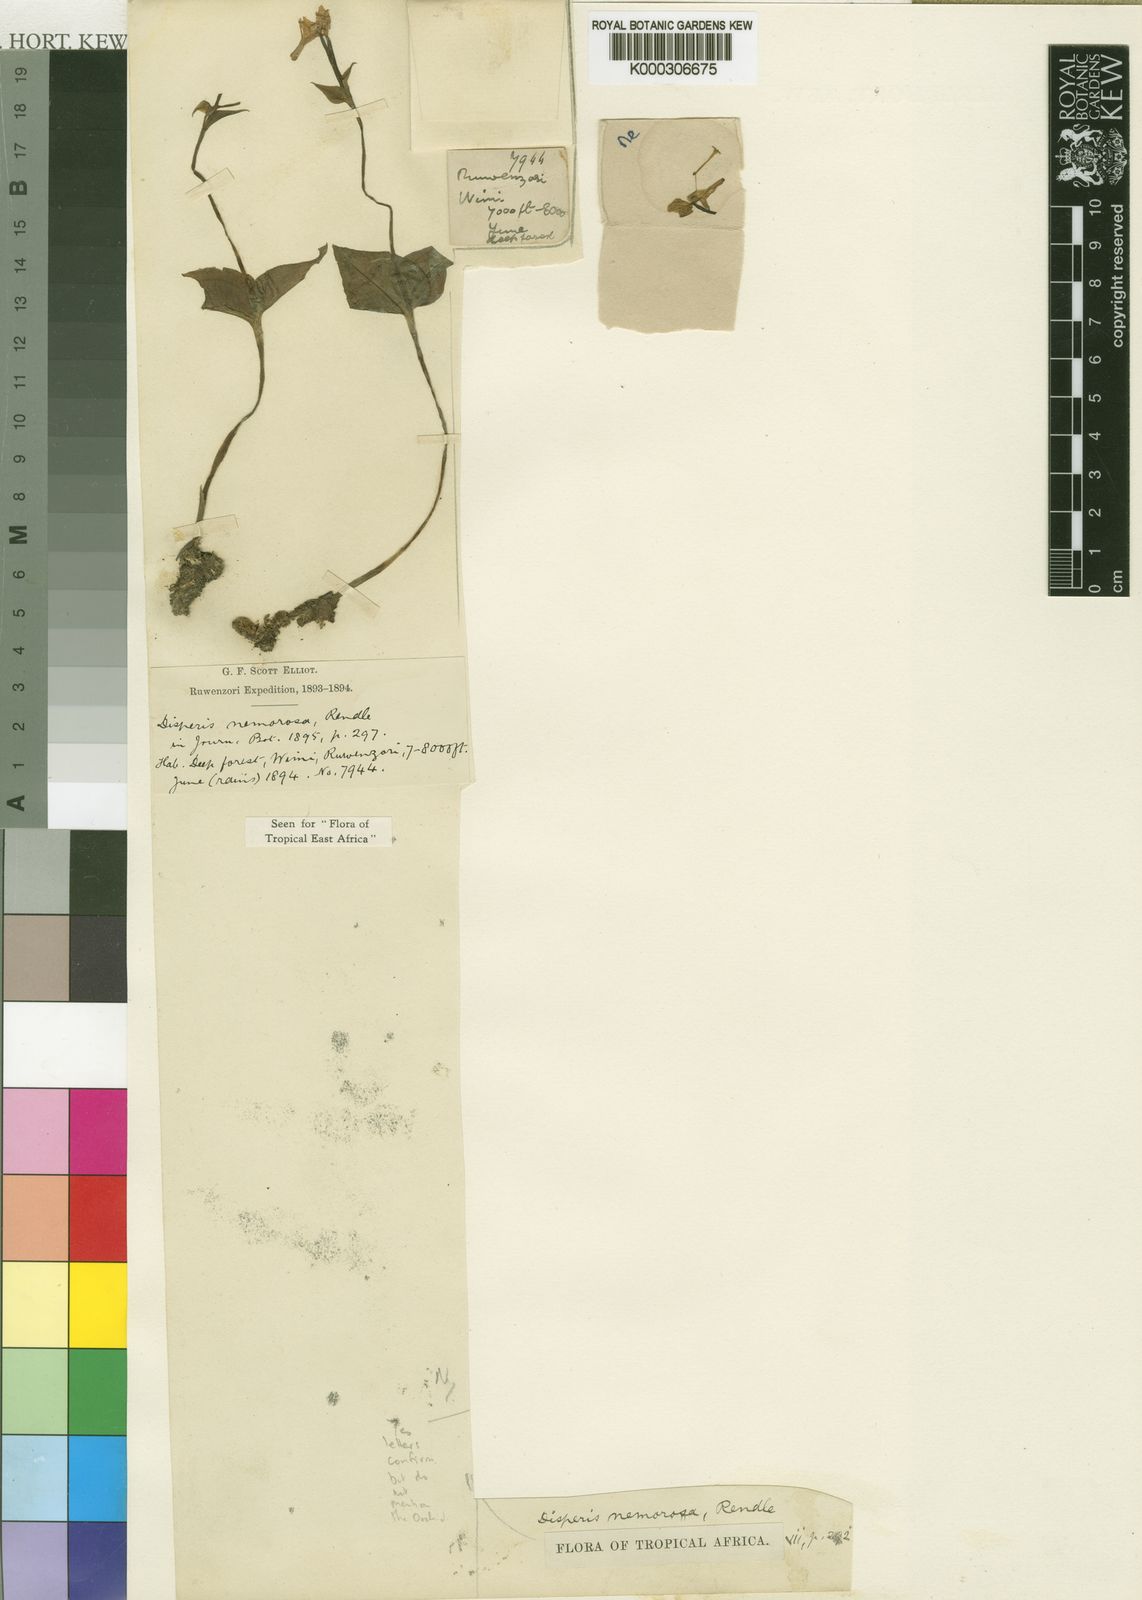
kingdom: Plantae
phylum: Tracheophyta
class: Liliopsida
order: Asparagales
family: Orchidaceae
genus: Disperis
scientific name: Disperis nemorosa
